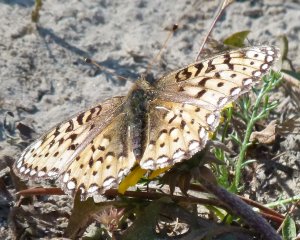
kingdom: Animalia
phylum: Arthropoda
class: Insecta
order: Lepidoptera
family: Nymphalidae
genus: Speyeria
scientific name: Speyeria cybele
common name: Great Spangled Fritillary
